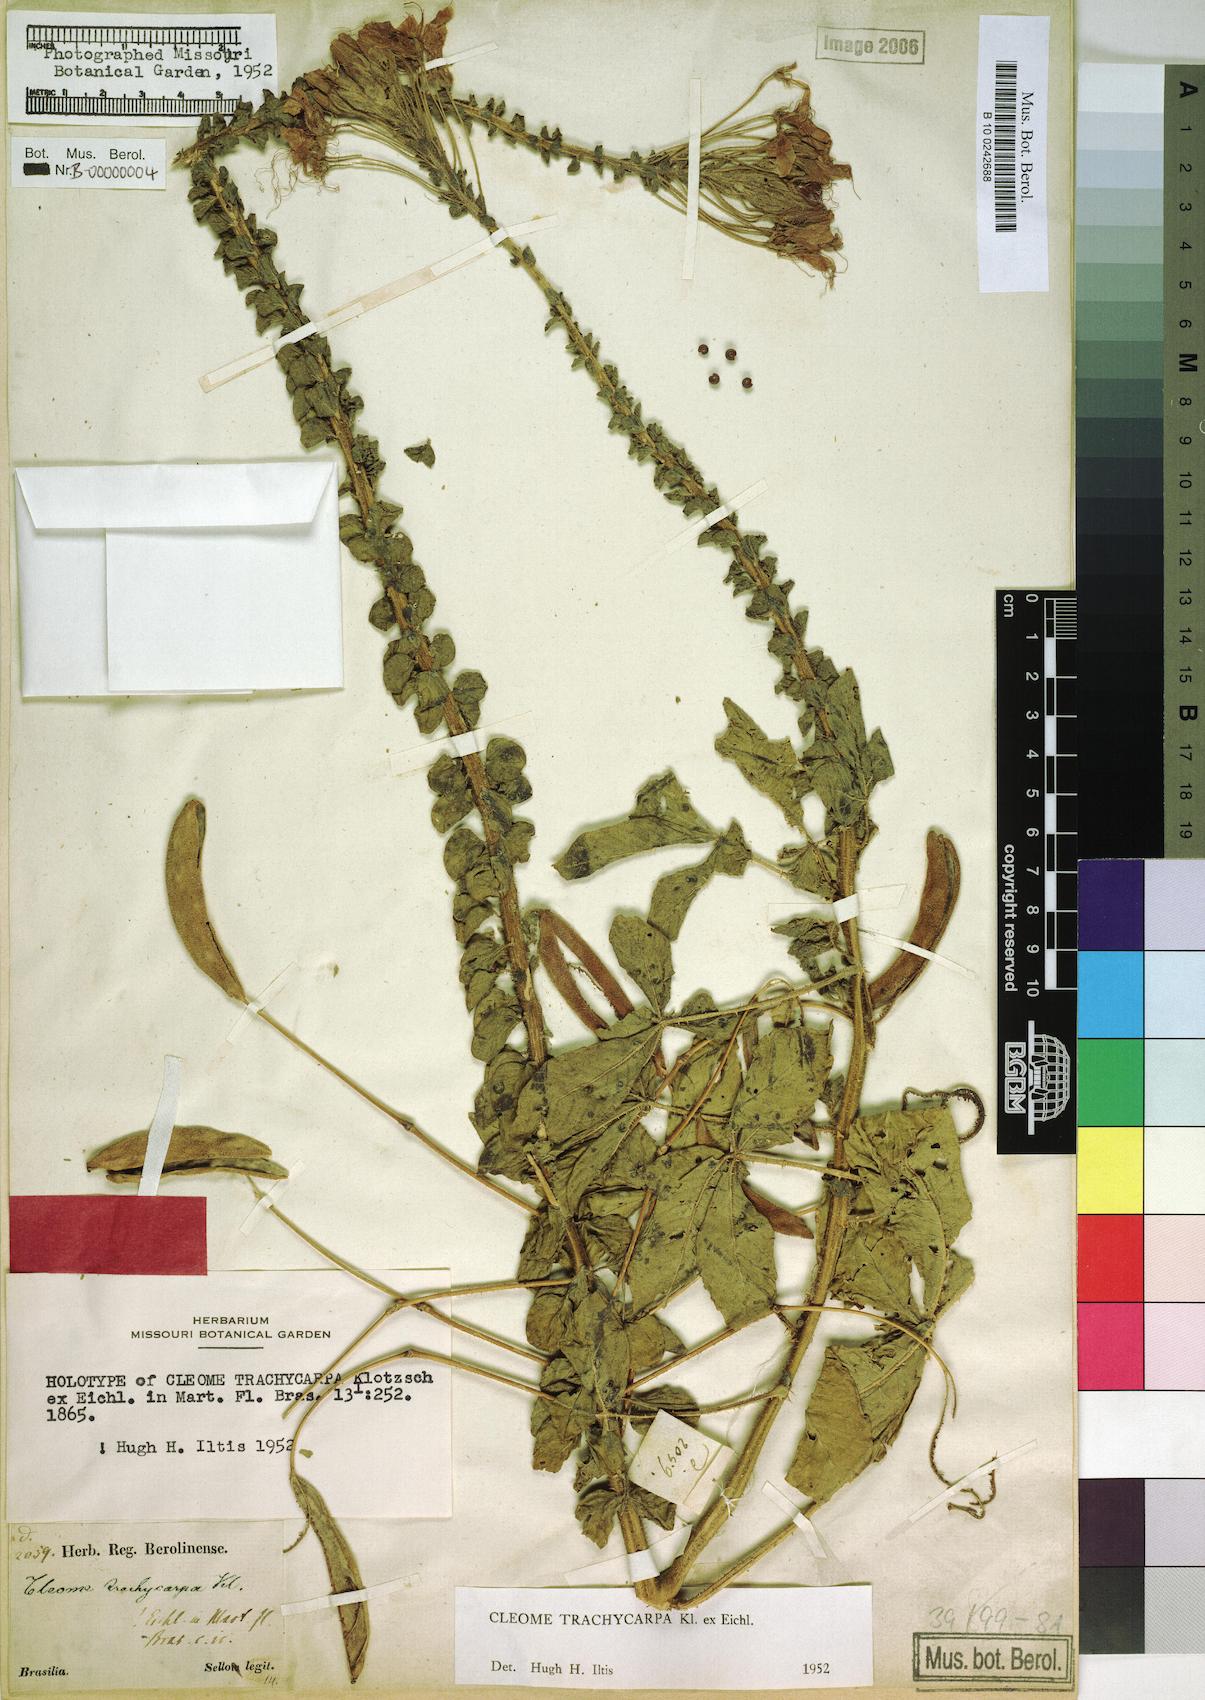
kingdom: Plantae
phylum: Tracheophyta
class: Magnoliopsida
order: Brassicales
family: Cleomaceae
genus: Tarenaya
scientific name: Tarenaya trachycarpa
